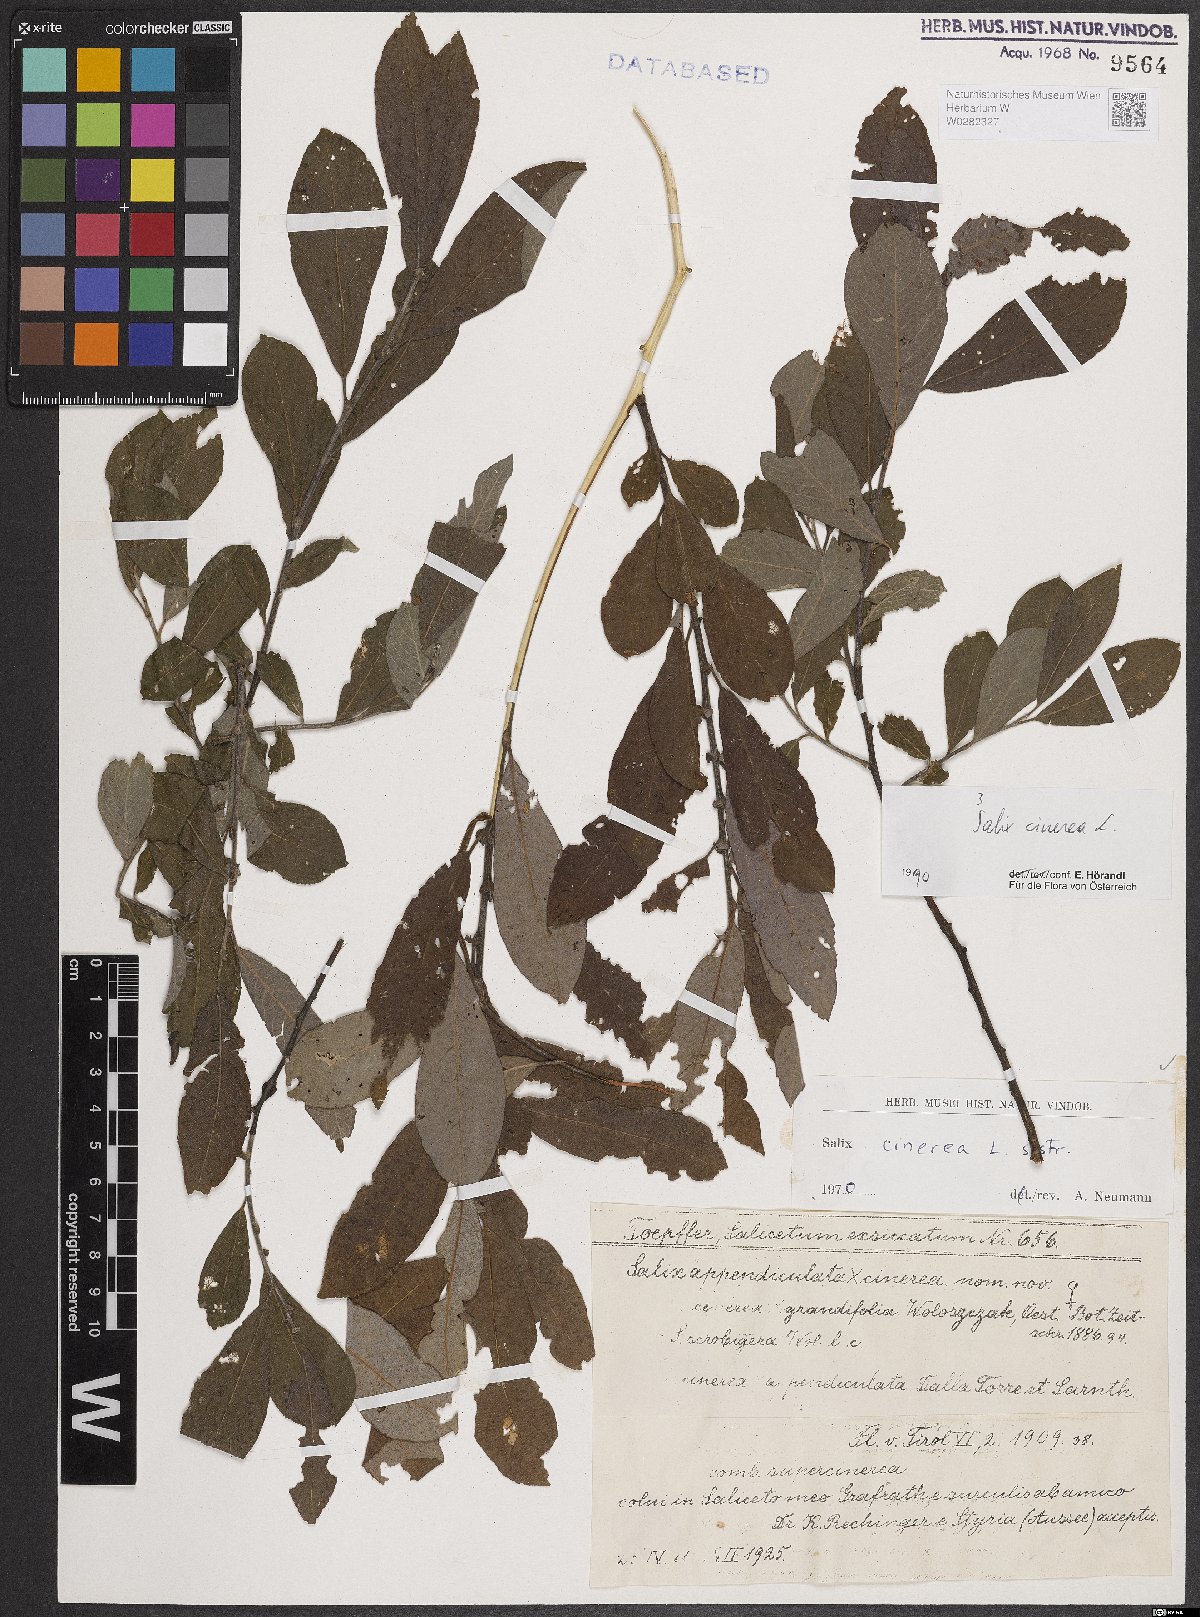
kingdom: Plantae
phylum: Tracheophyta
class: Magnoliopsida
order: Malpighiales
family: Salicaceae
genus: Salix
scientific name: Salix cinerea
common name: Common sallow
